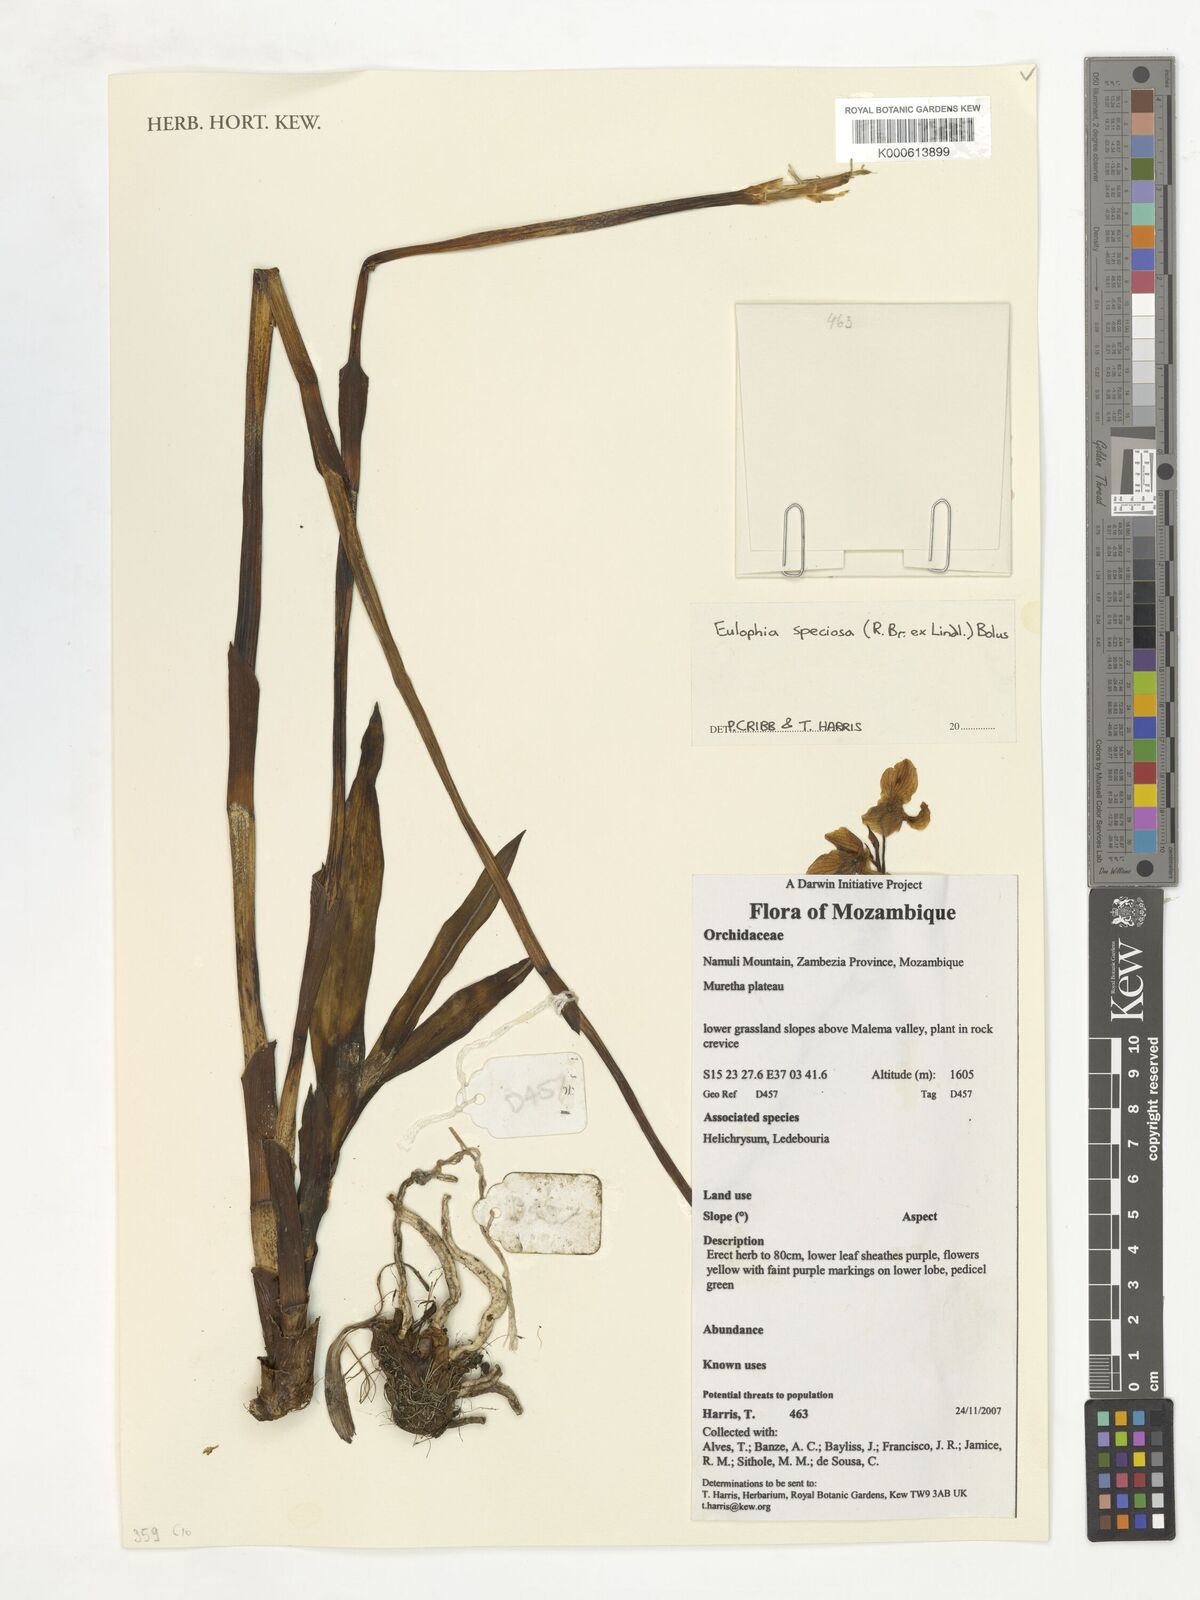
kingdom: Plantae
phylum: Tracheophyta
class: Liliopsida
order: Asparagales
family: Orchidaceae
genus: Eulophia
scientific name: Eulophia speciosa
